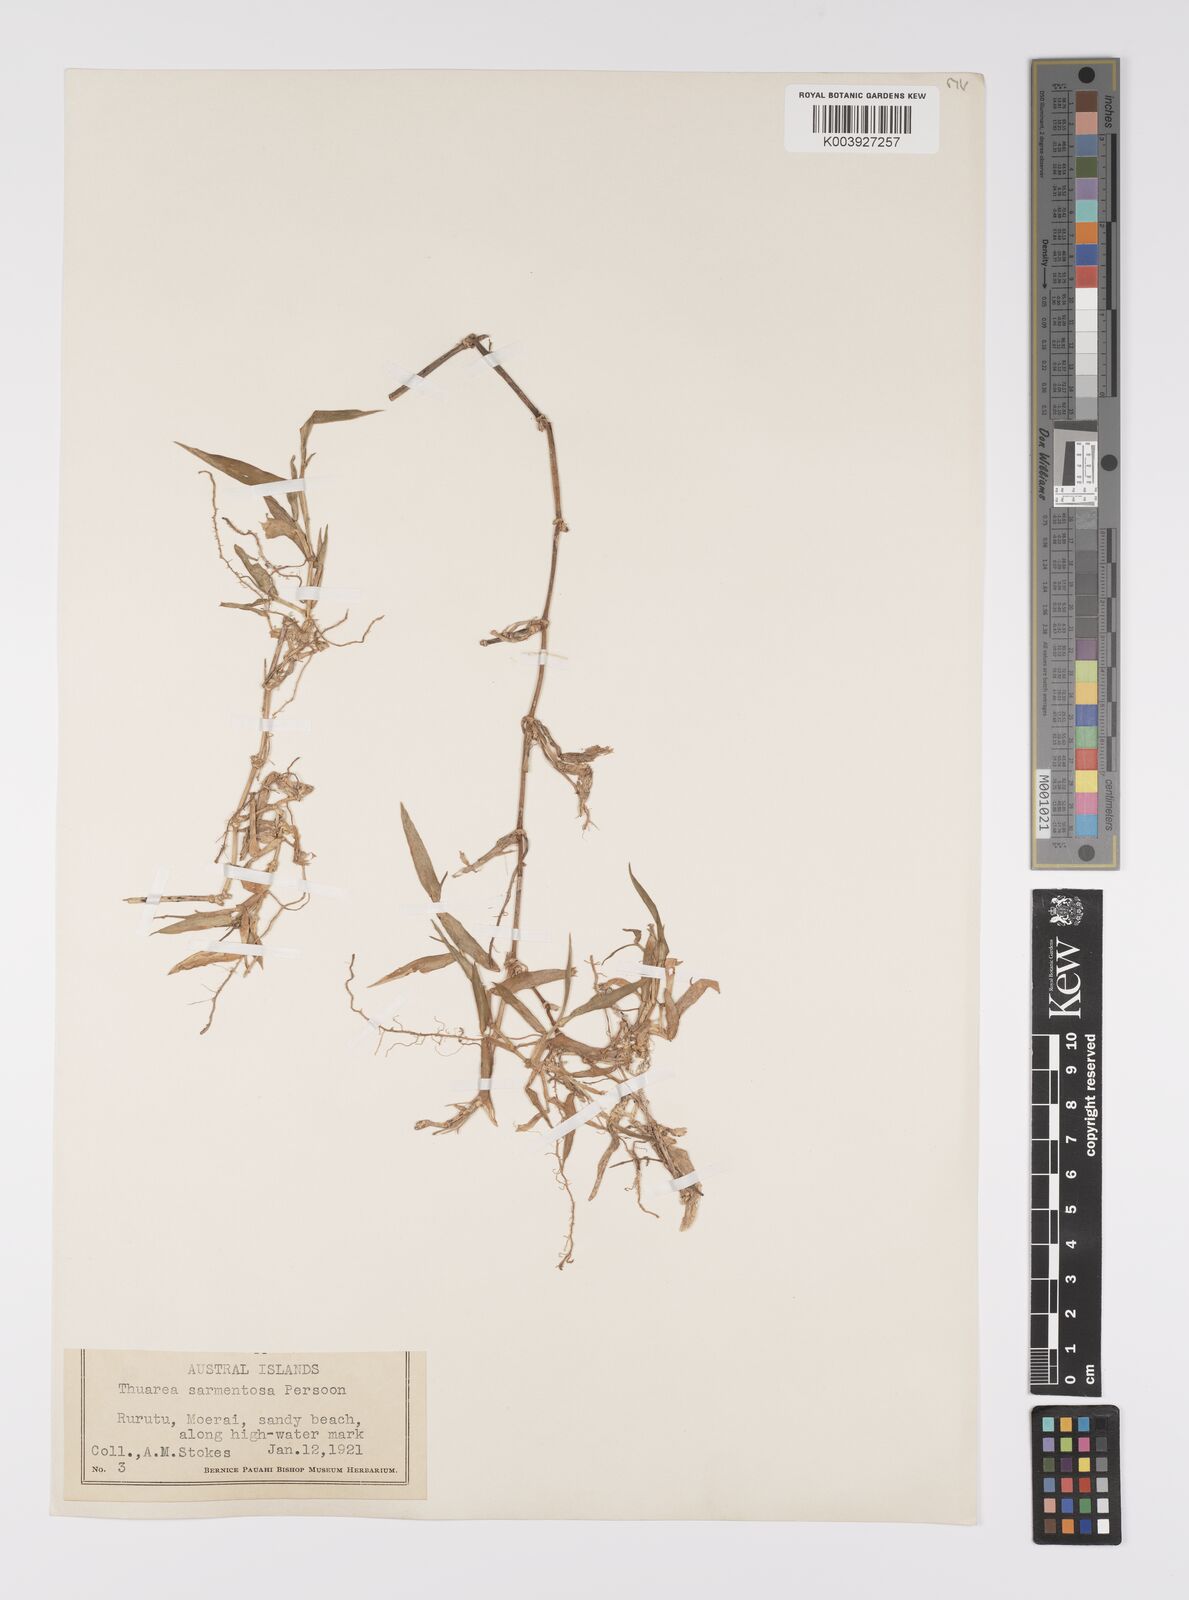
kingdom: Plantae
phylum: Tracheophyta
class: Liliopsida
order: Poales
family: Poaceae
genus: Thuarea
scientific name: Thuarea involuta
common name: Tropical beach grass
